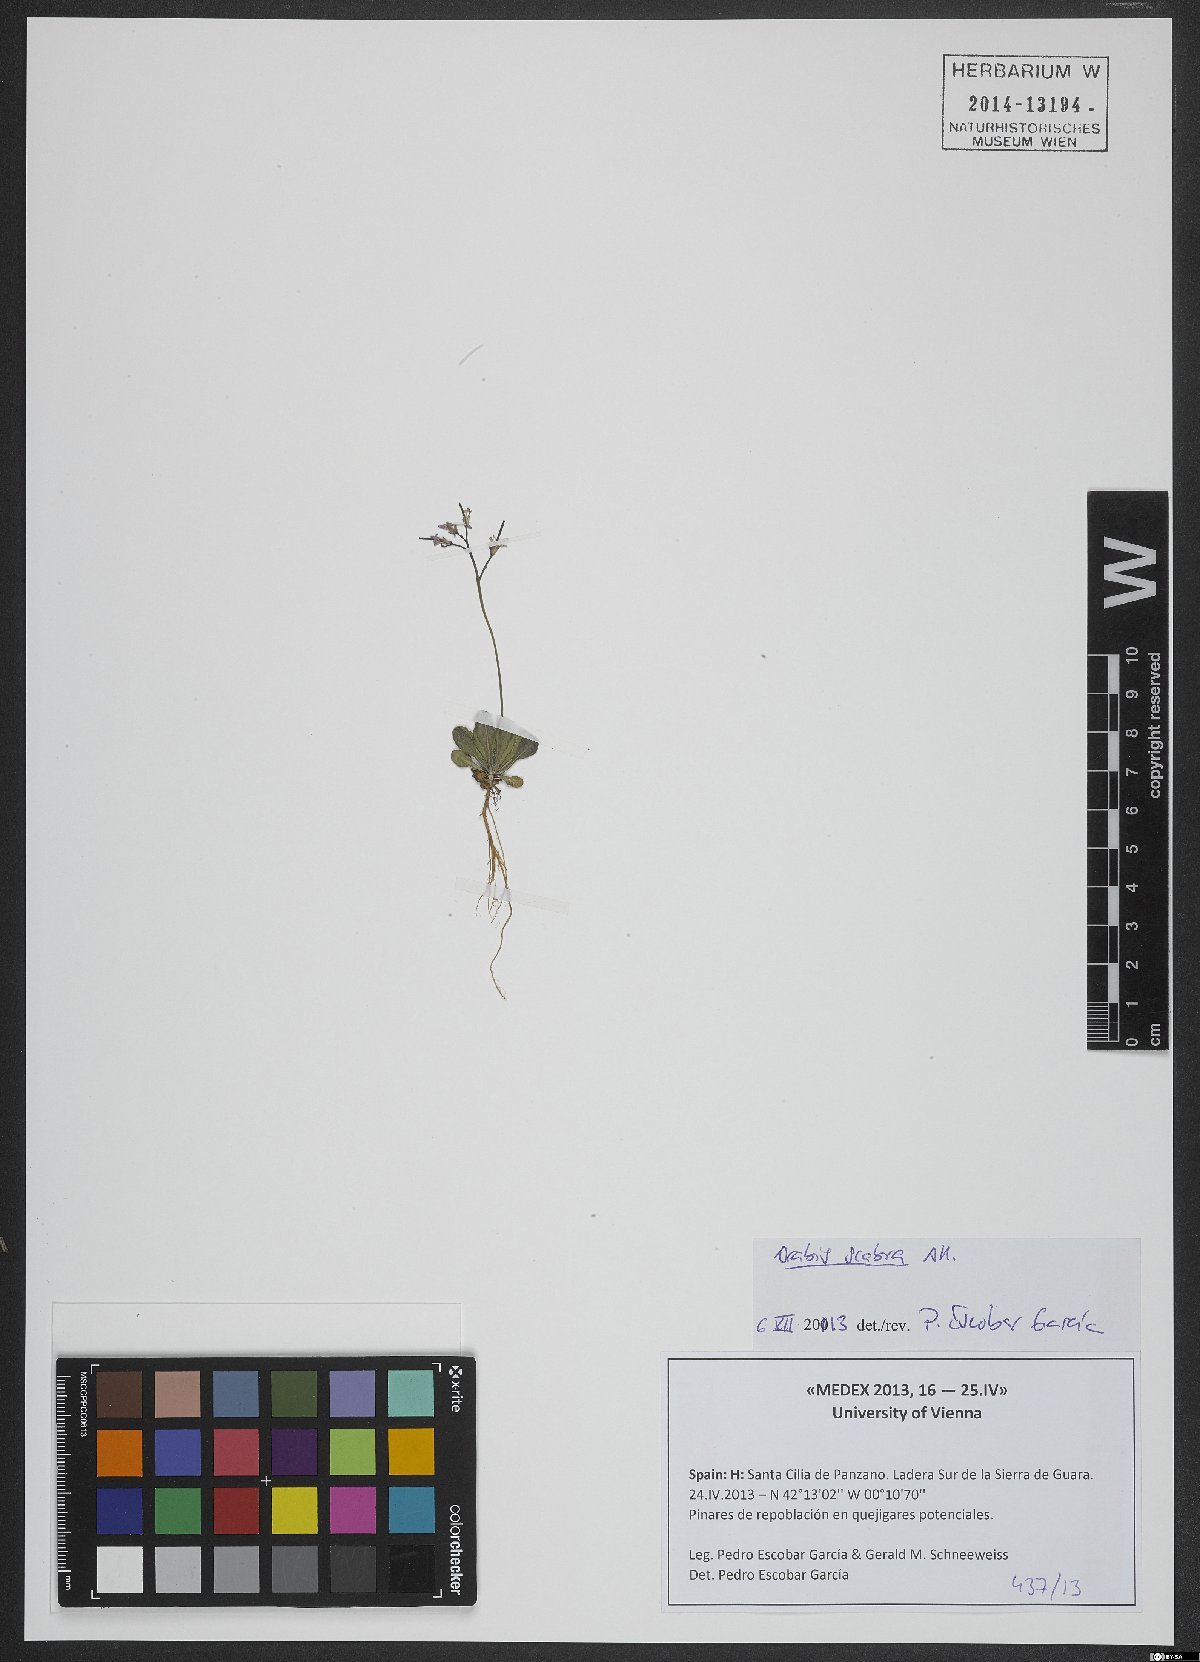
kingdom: Plantae
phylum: Tracheophyta
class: Magnoliopsida
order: Brassicales
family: Brassicaceae
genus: Arabis
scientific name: Arabis scabra
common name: Bristol rock-cress
